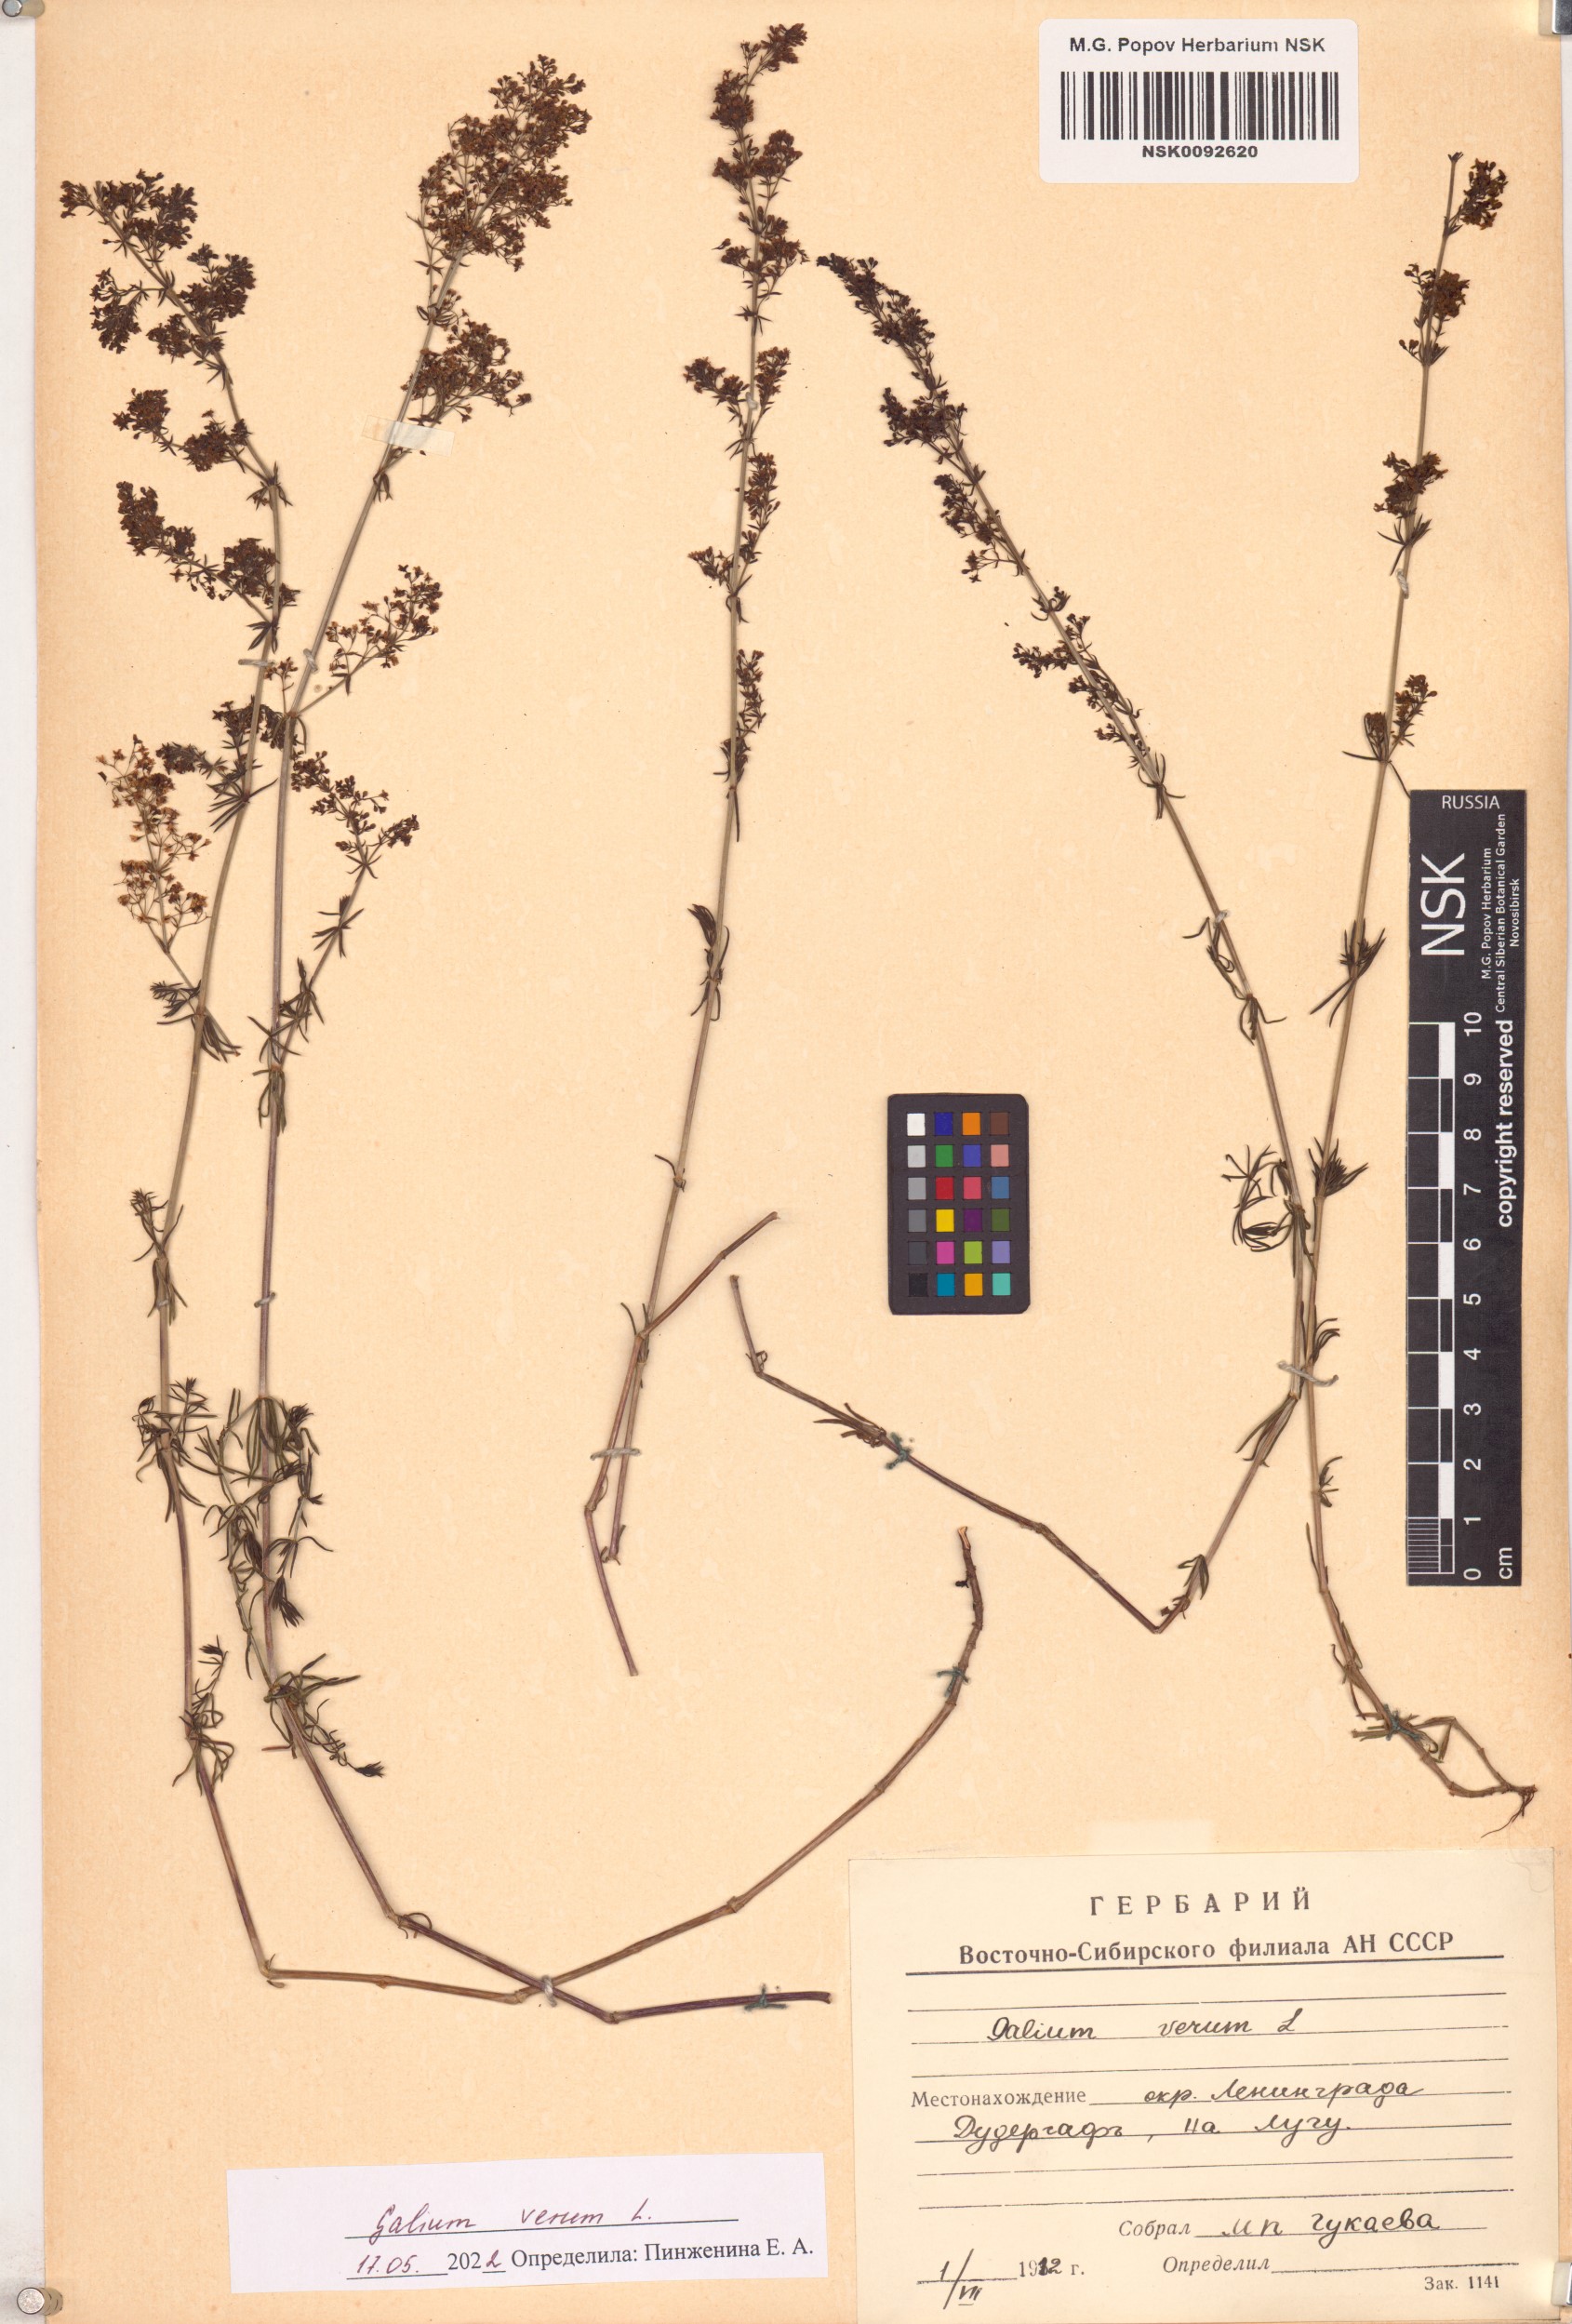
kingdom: Plantae
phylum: Tracheophyta
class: Magnoliopsida
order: Gentianales
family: Rubiaceae
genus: Galium
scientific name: Galium verum
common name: Lady's bedstraw
